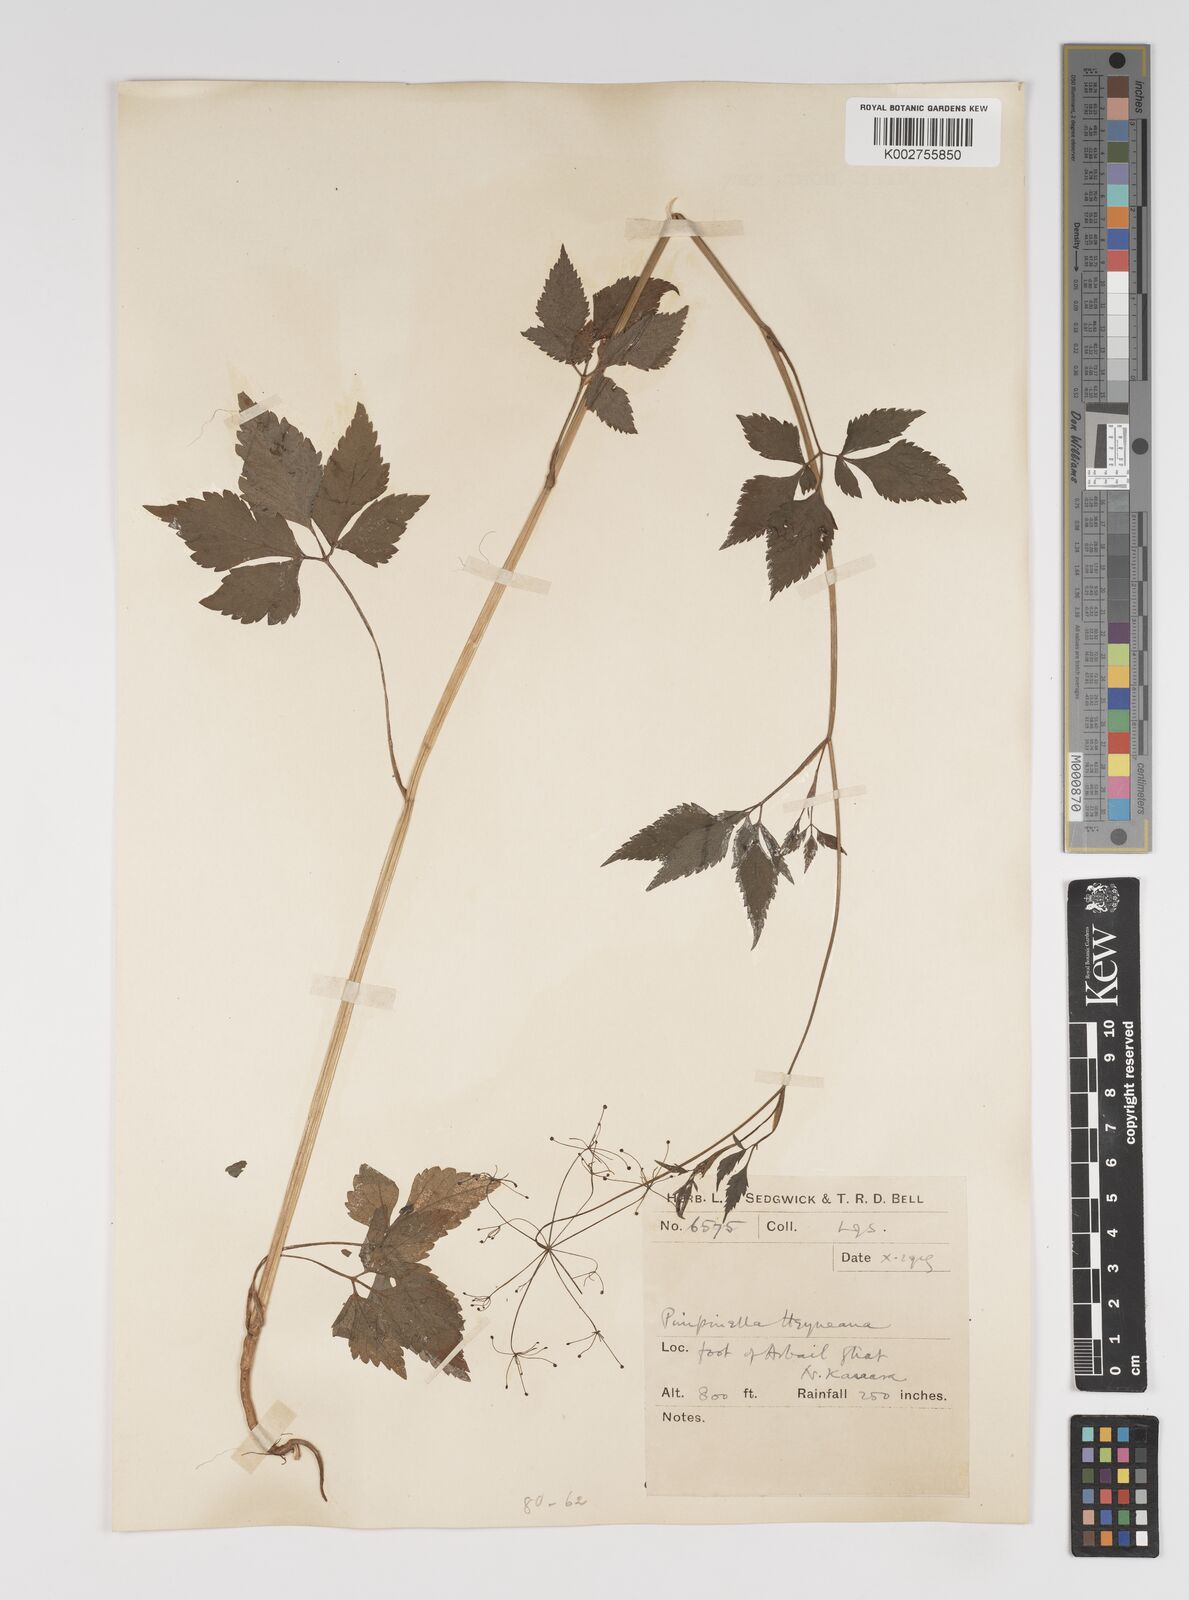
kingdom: Plantae
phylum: Tracheophyta
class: Magnoliopsida
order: Apiales
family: Apiaceae
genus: Pimpinella
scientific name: Pimpinella heyneana
